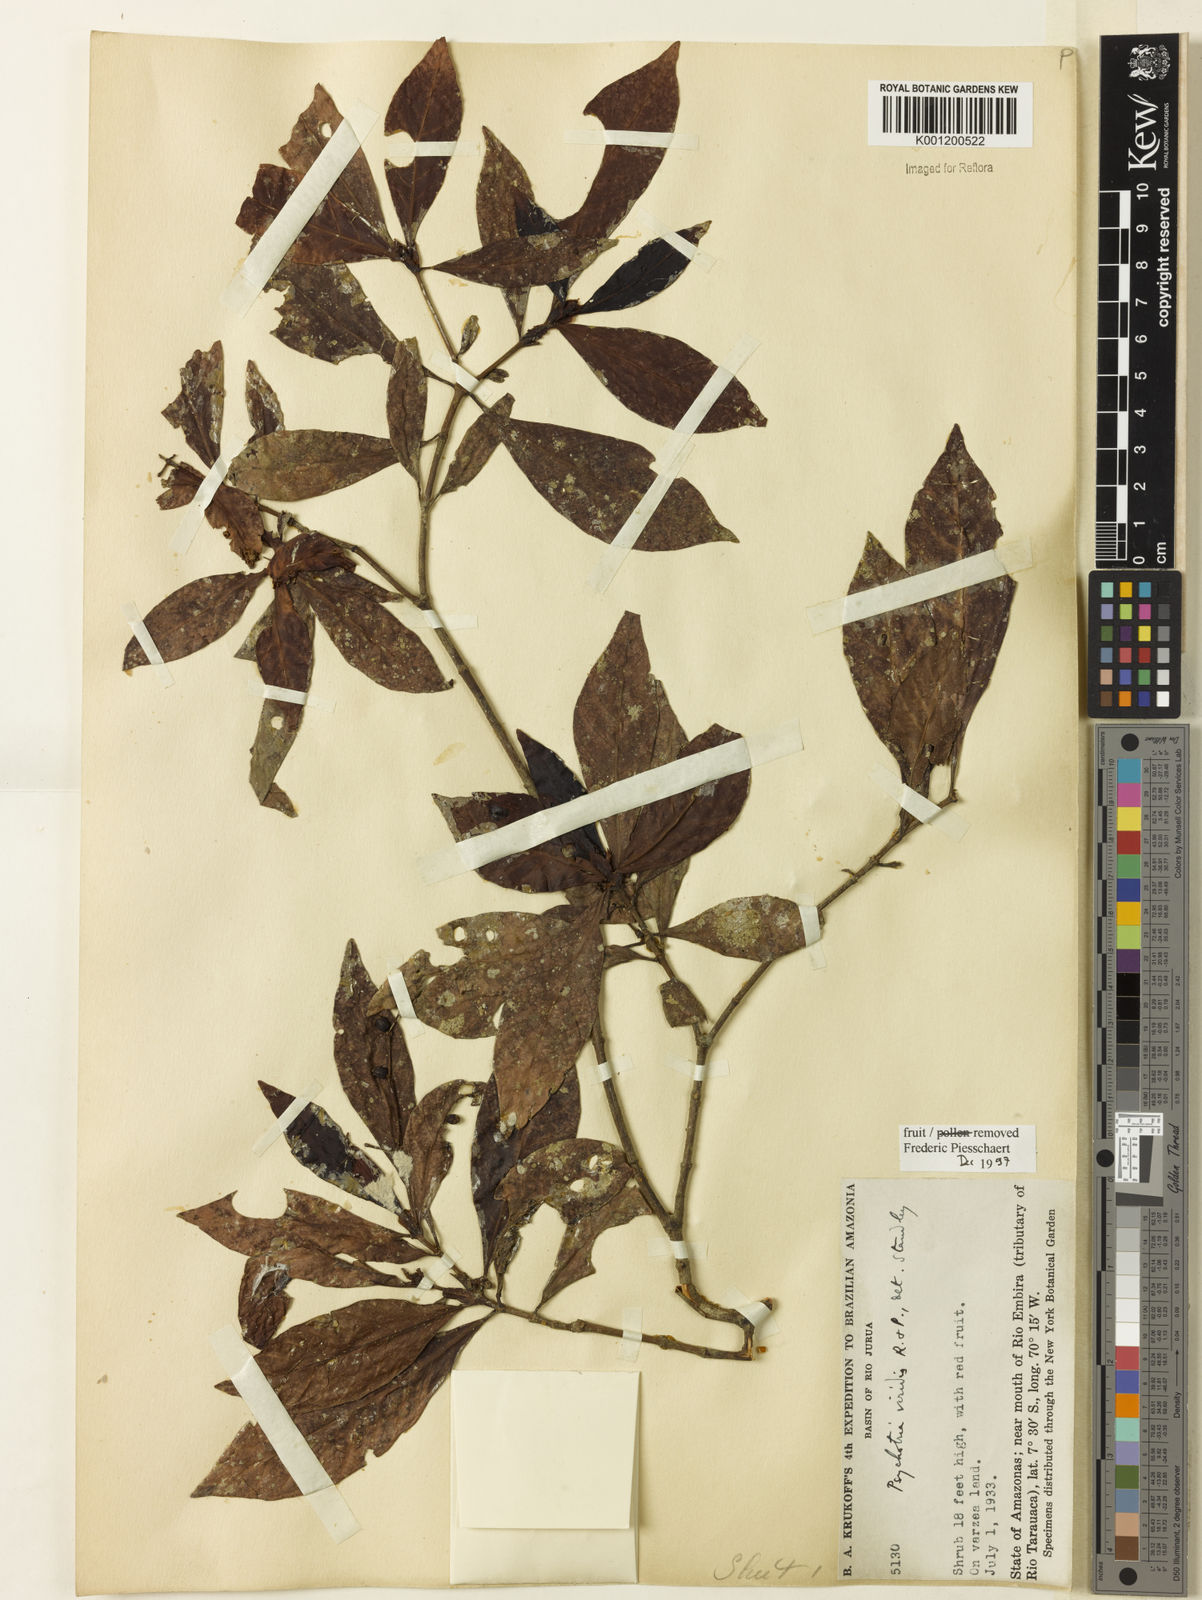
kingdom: Plantae
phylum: Tracheophyta
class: Magnoliopsida
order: Gentianales
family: Rubiaceae
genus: Psychotria
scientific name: Psychotria viridis
